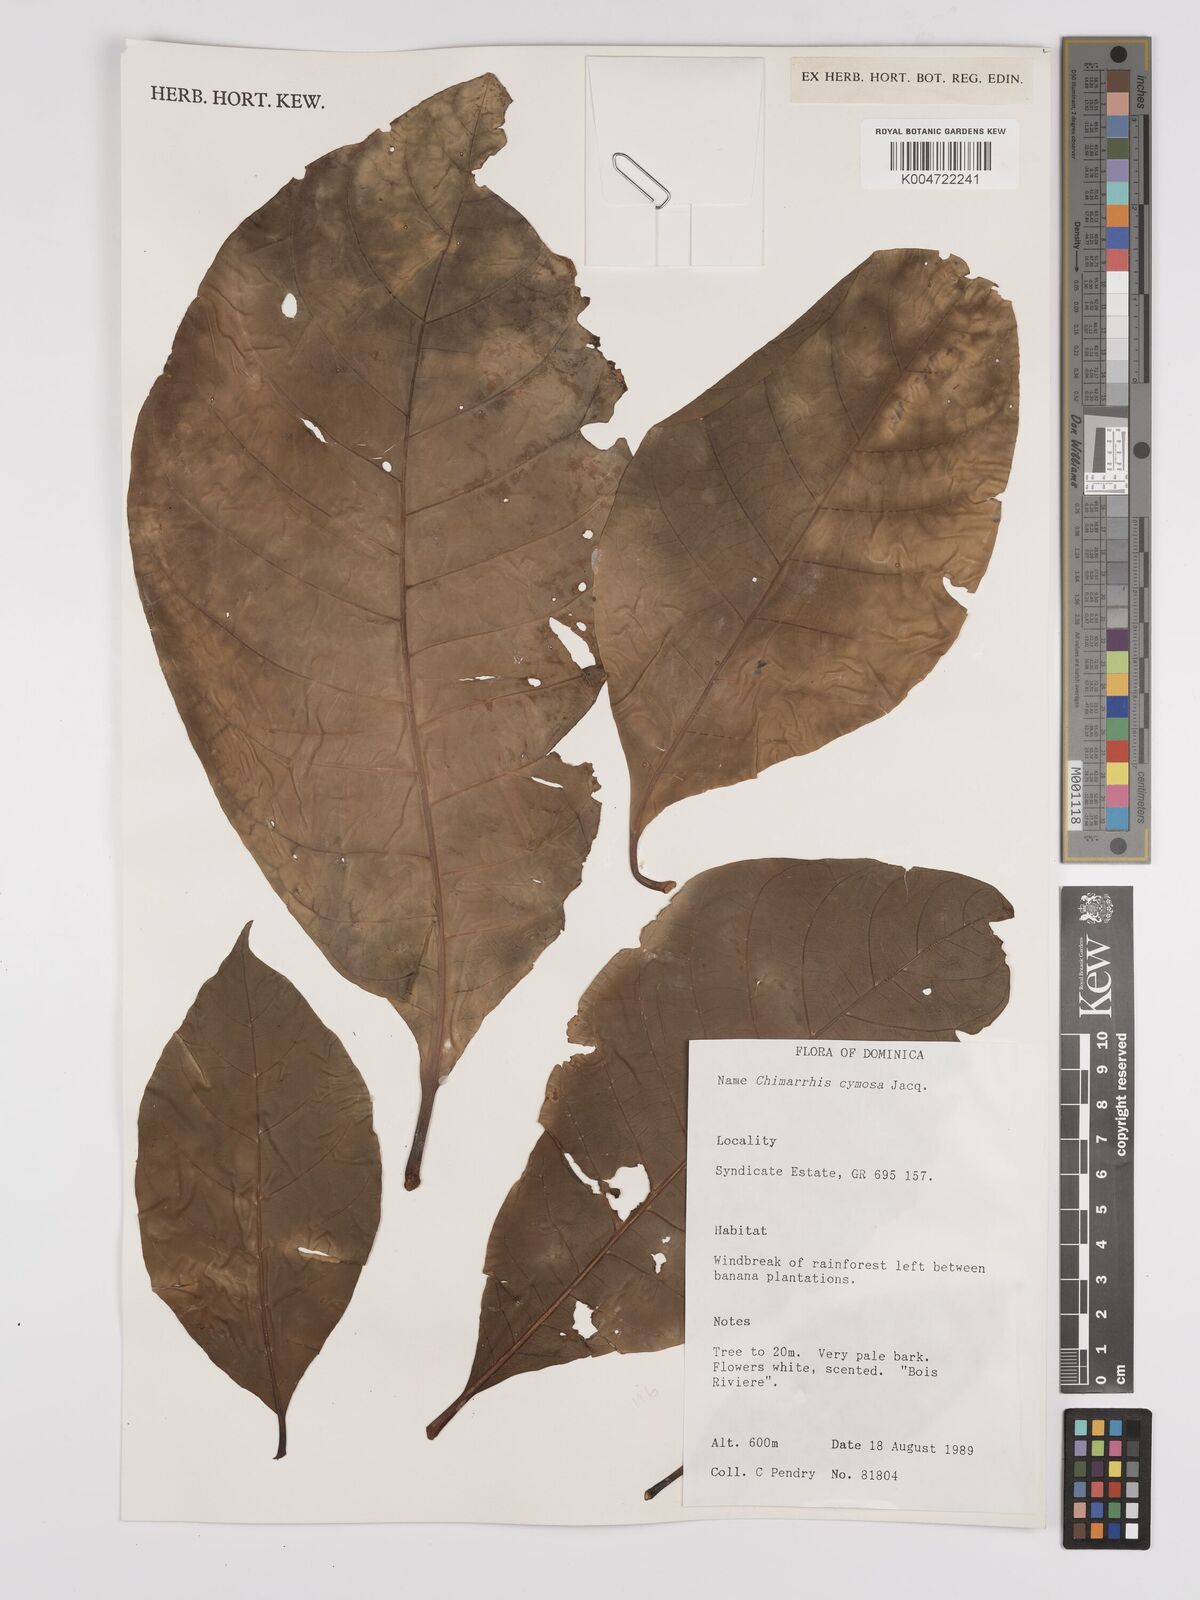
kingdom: Plantae
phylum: Tracheophyta
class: Magnoliopsida
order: Gentianales
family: Rubiaceae
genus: Chimarrhis
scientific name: Chimarrhis cymosa
